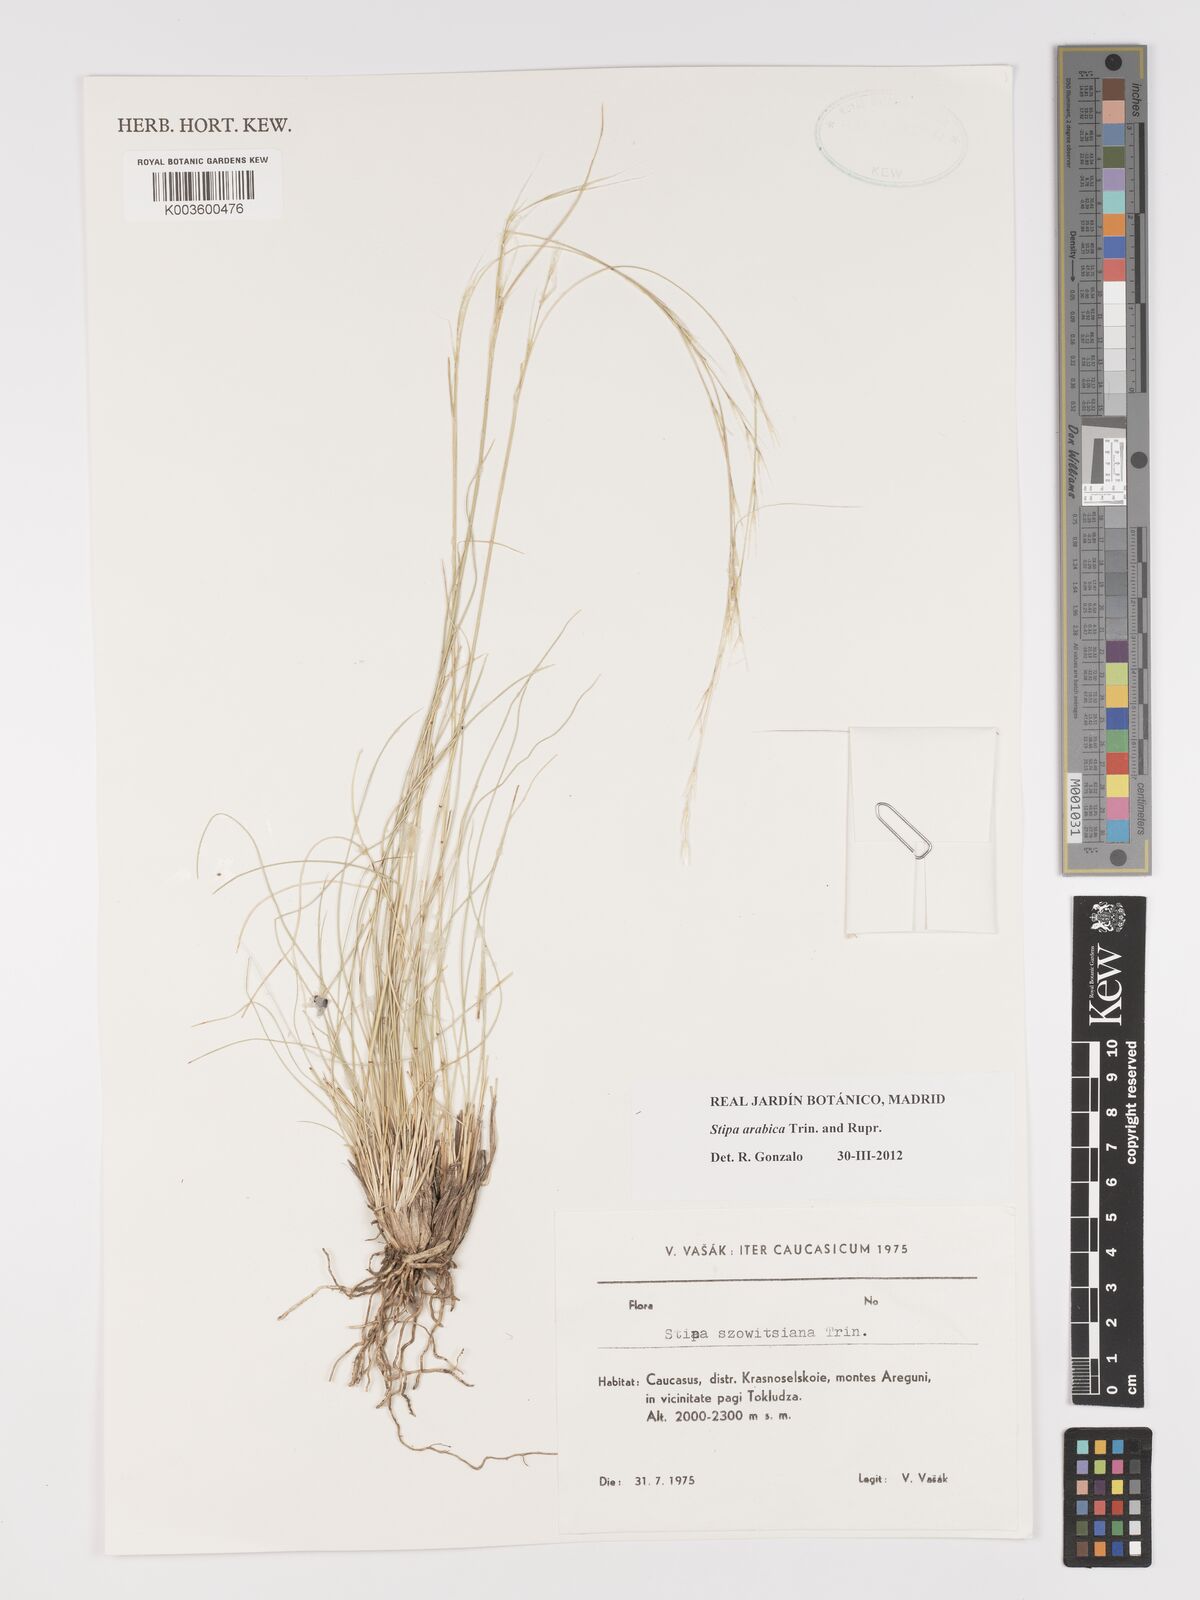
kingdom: Plantae
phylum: Tracheophyta
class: Liliopsida
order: Poales
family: Poaceae
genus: Stipa
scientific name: Stipa arabica
